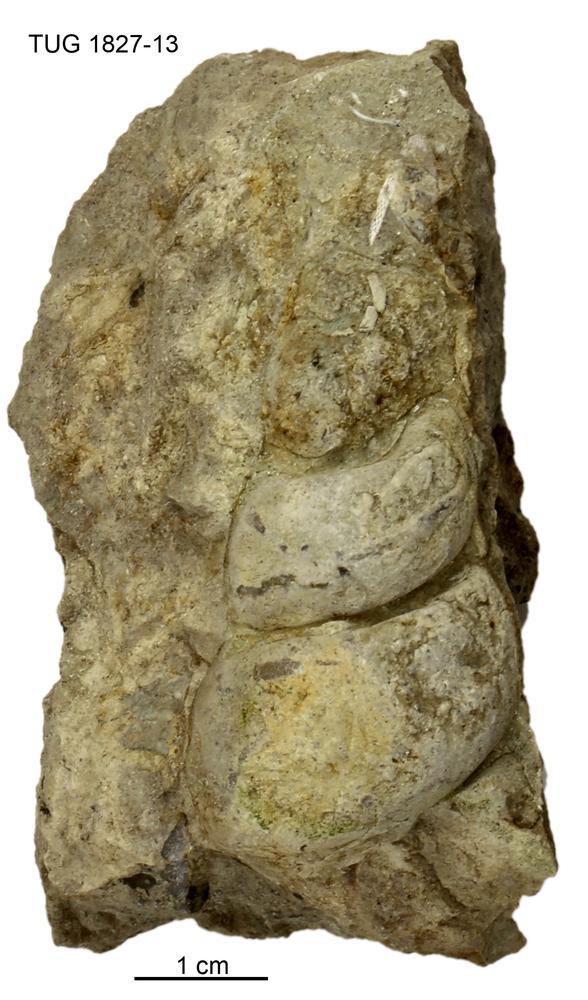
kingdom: Animalia
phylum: Mollusca
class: Gastropoda
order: Pleurotomariida
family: Murchisoniidae
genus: Hormotoma
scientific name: Hormotoma
